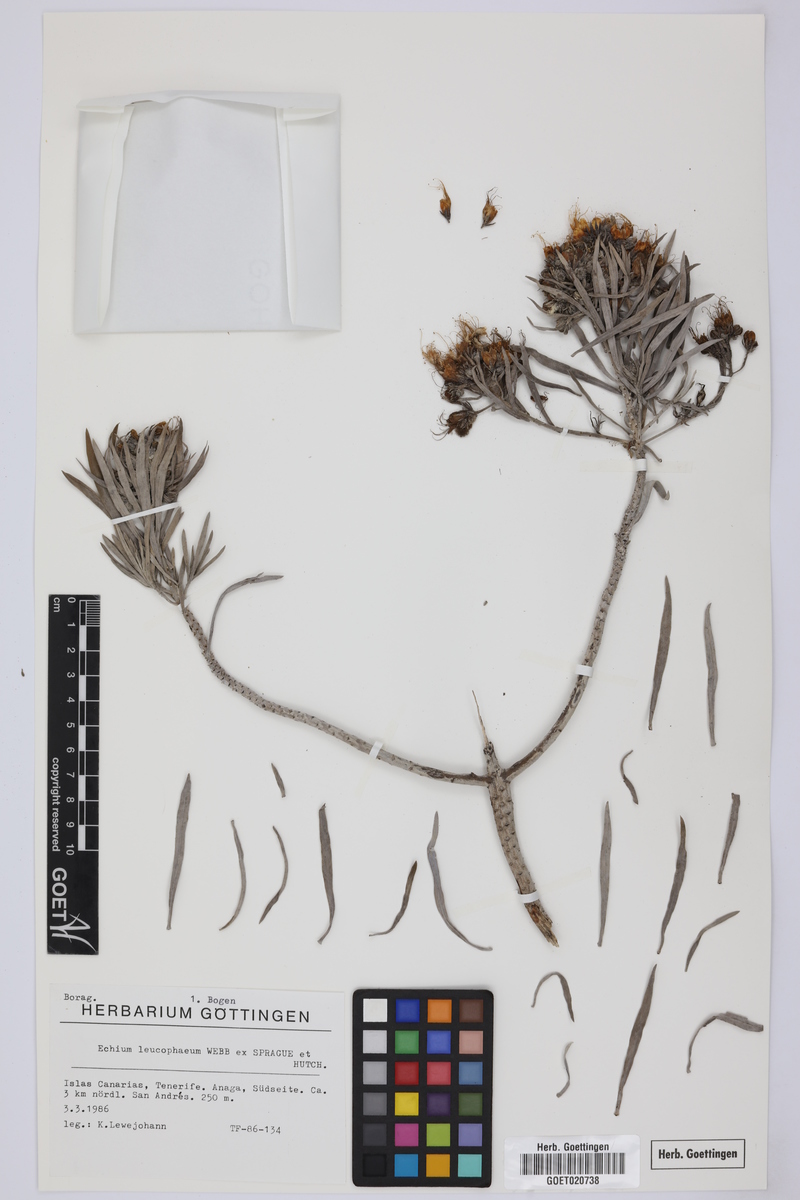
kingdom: Plantae
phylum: Tracheophyta
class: Magnoliopsida
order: Boraginales
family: Boraginaceae
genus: Echium
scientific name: Echium leucophaeum
